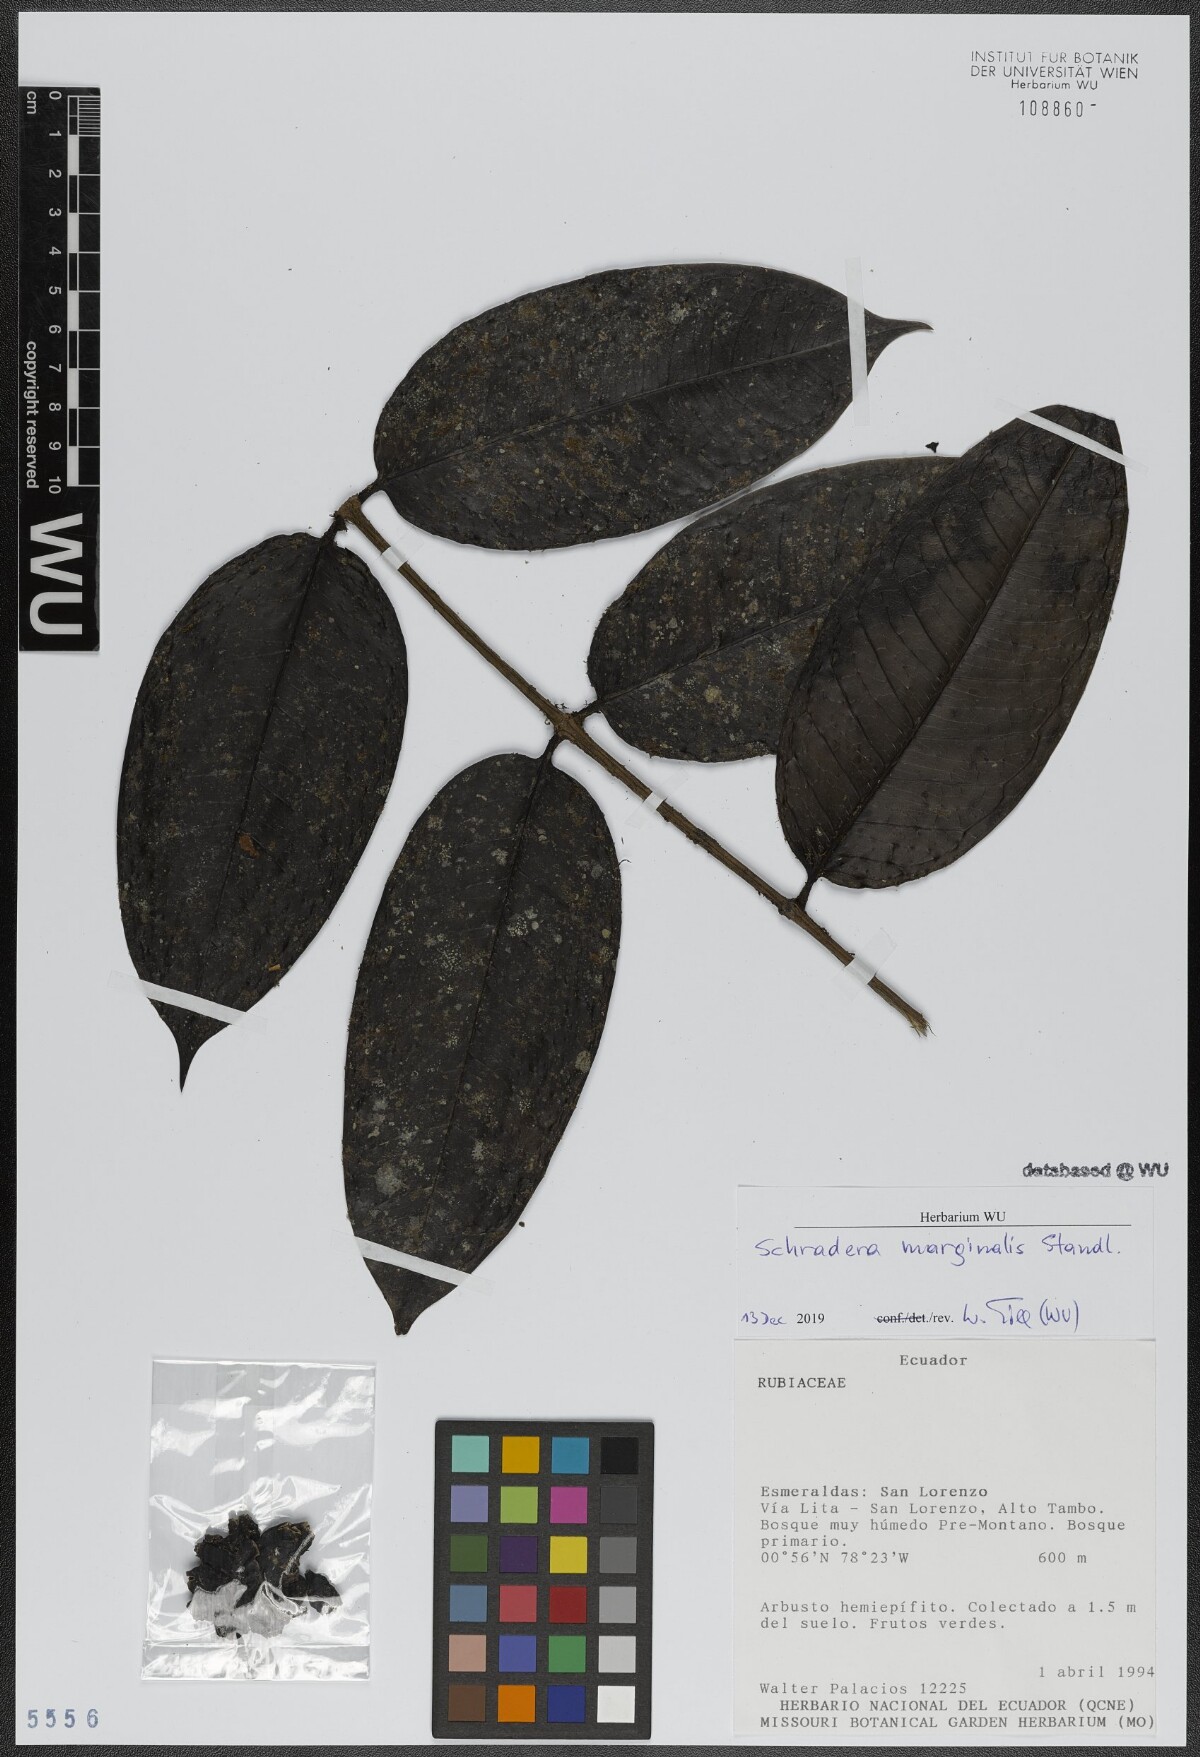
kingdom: Plantae
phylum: Tracheophyta
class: Magnoliopsida
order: Gentianales
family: Rubiaceae
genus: Schradera
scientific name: Schradera marginalis
